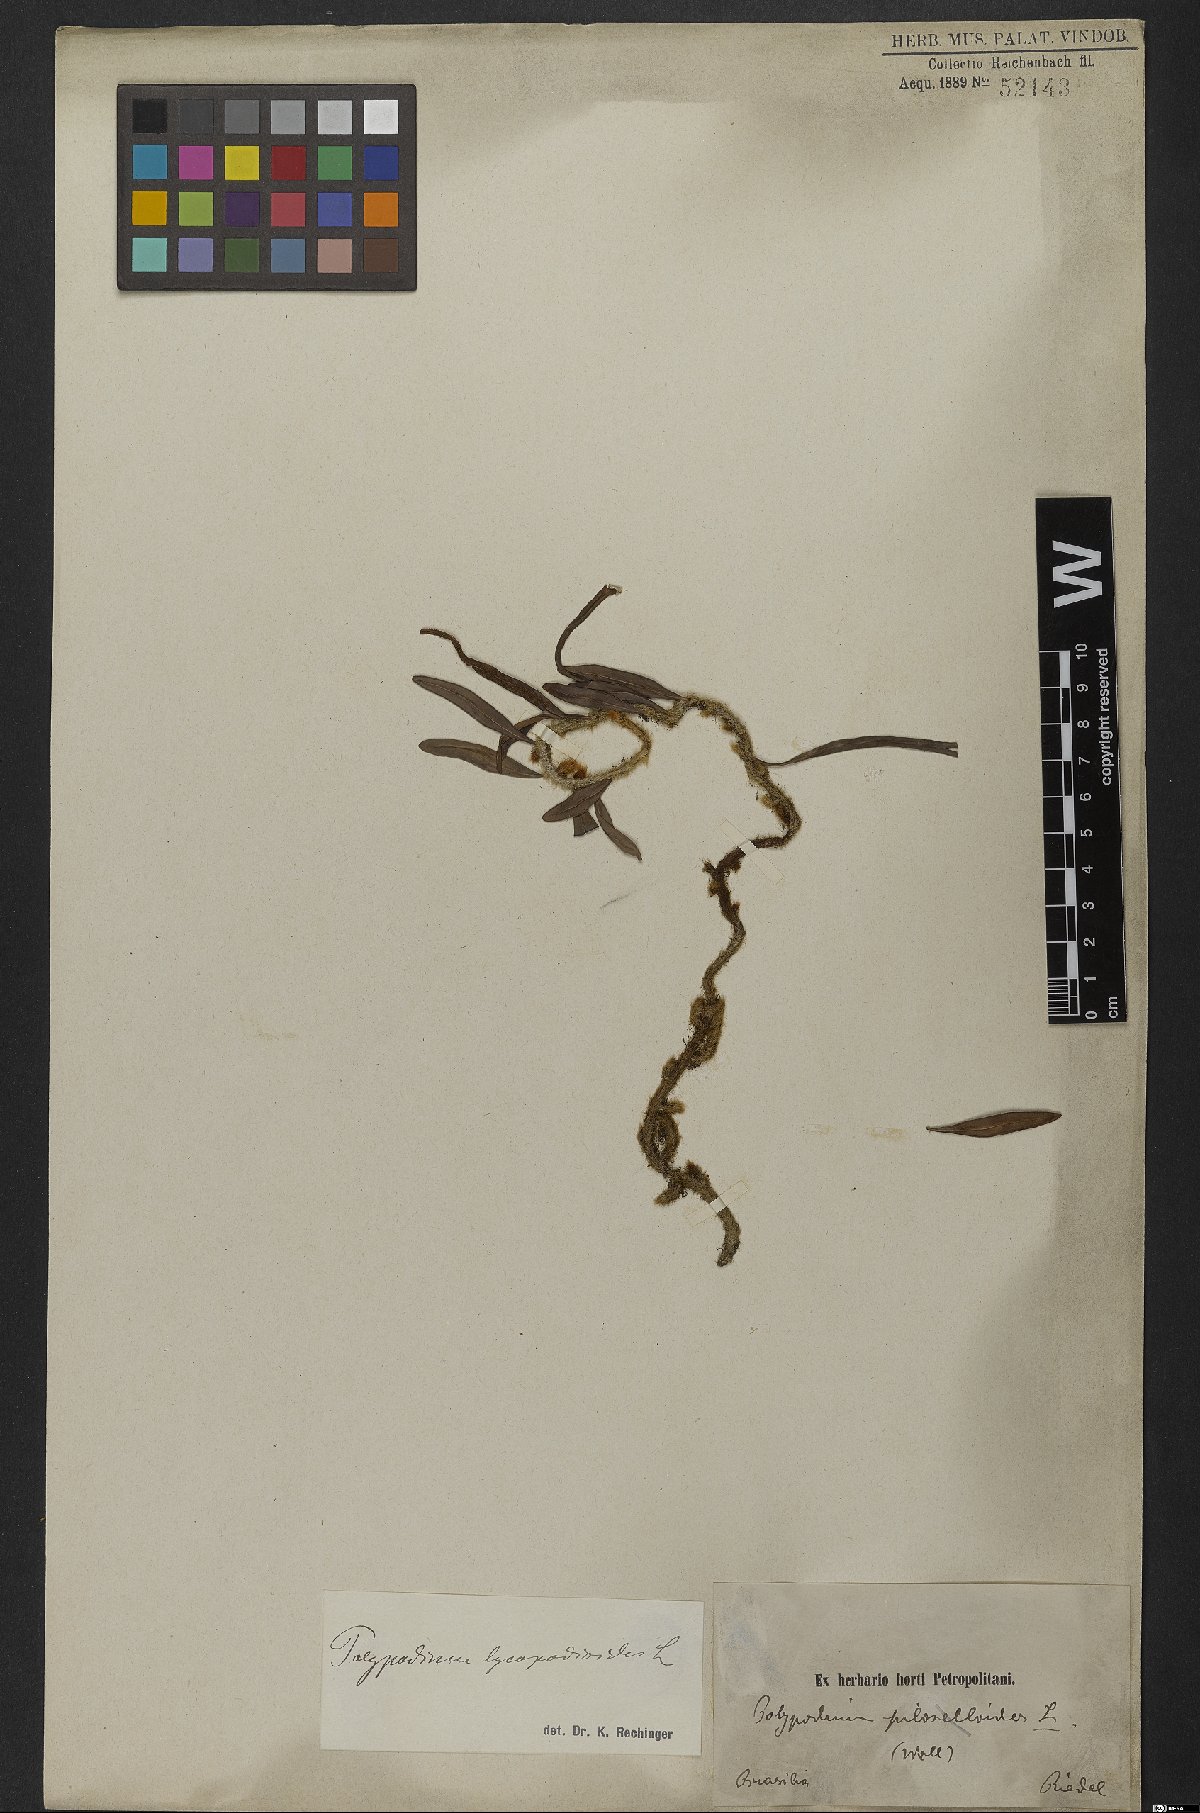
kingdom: Plantae
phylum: Tracheophyta
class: Polypodiopsida
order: Polypodiales
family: Polypodiaceae
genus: Microgramma
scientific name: Microgramma lycopodioides
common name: Bastard catclaw
